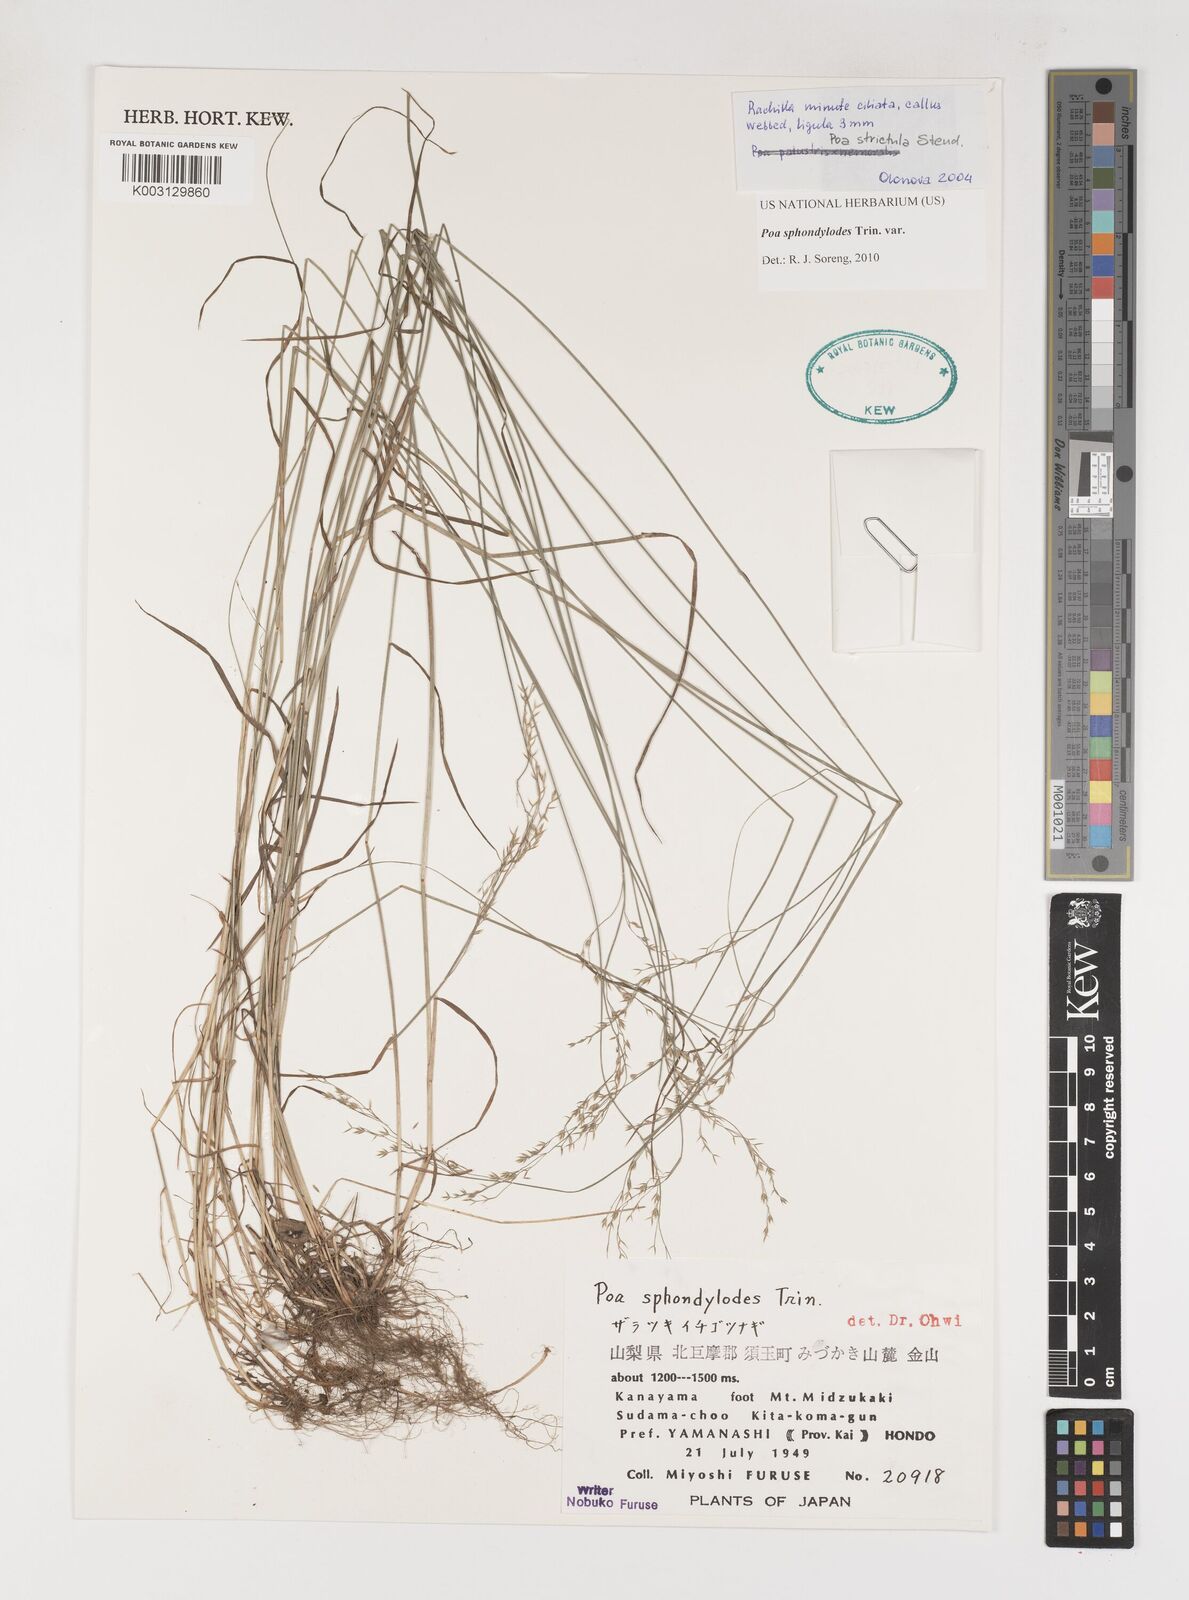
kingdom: Plantae
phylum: Tracheophyta
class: Liliopsida
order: Poales
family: Poaceae
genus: Poa
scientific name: Poa sphondylodes
